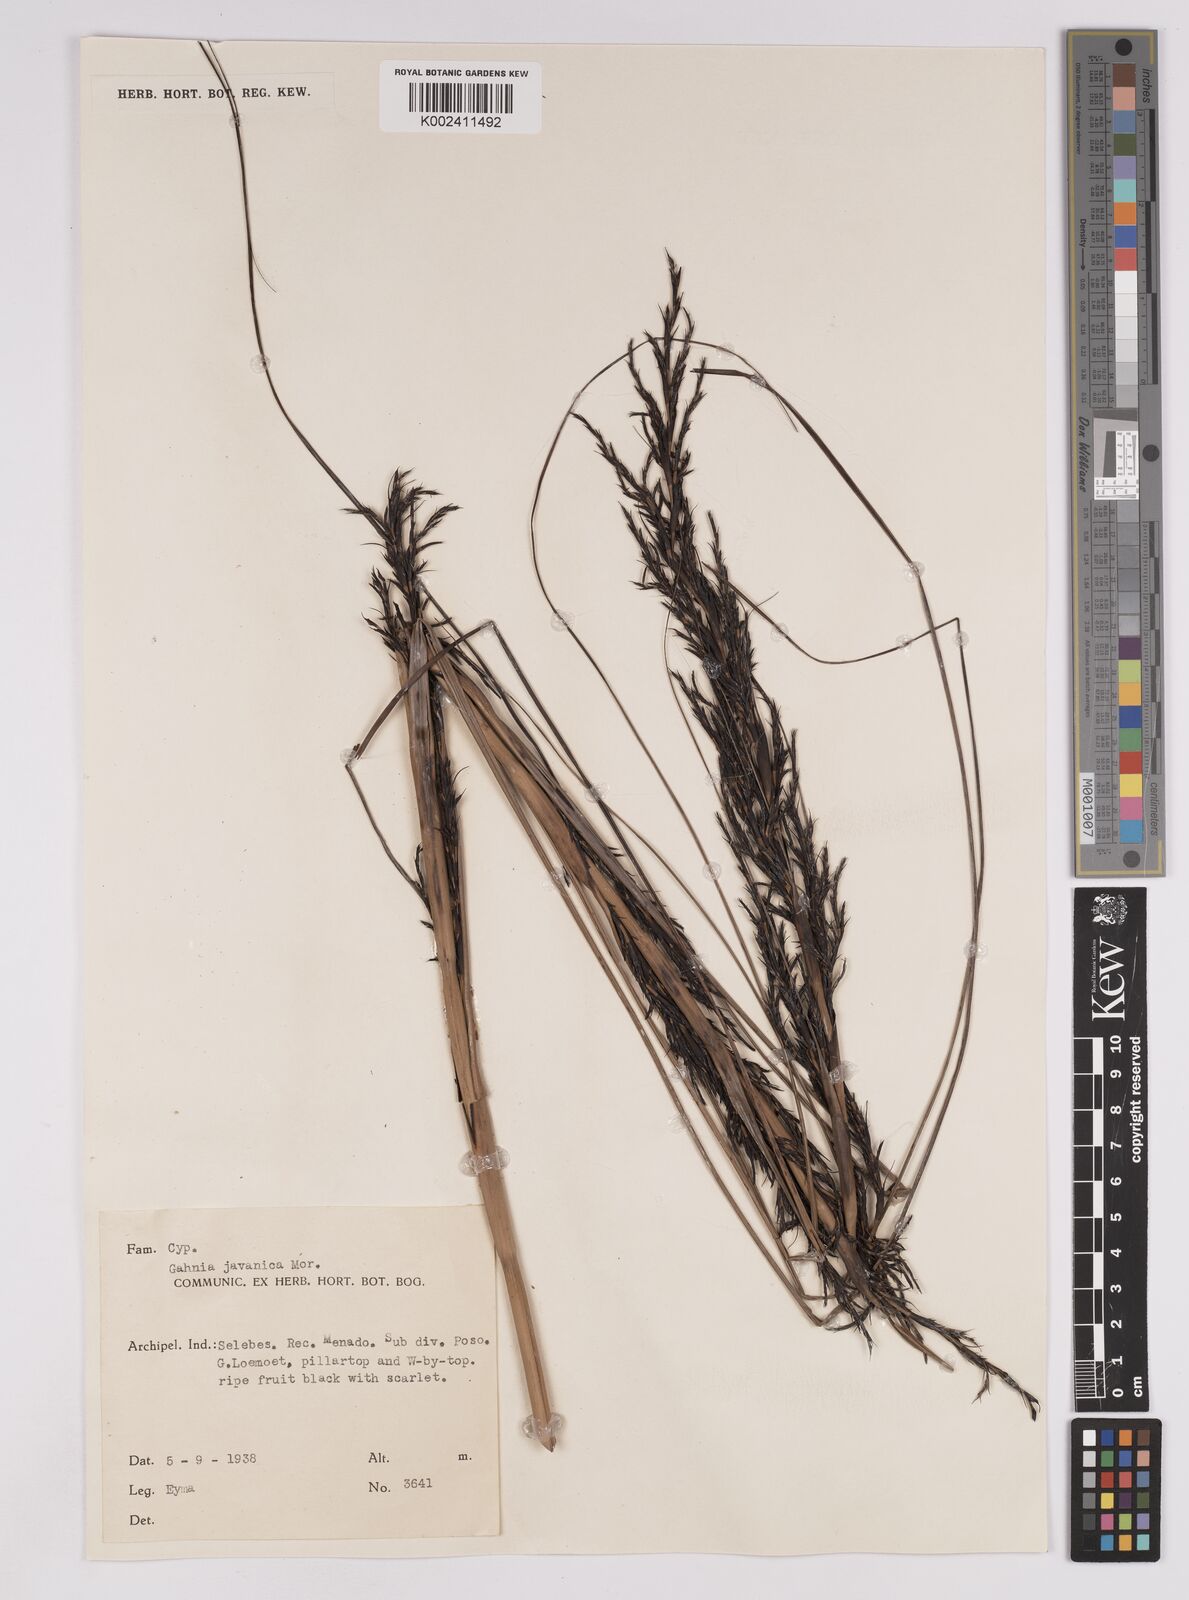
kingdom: Plantae
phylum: Tracheophyta
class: Liliopsida
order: Poales
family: Cyperaceae
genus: Gahnia
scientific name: Gahnia javanica
